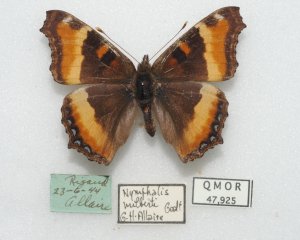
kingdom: Animalia
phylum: Arthropoda
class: Insecta
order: Lepidoptera
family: Nymphalidae
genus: Aglais
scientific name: Aglais milberti
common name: Milbert's Tortoiseshell
